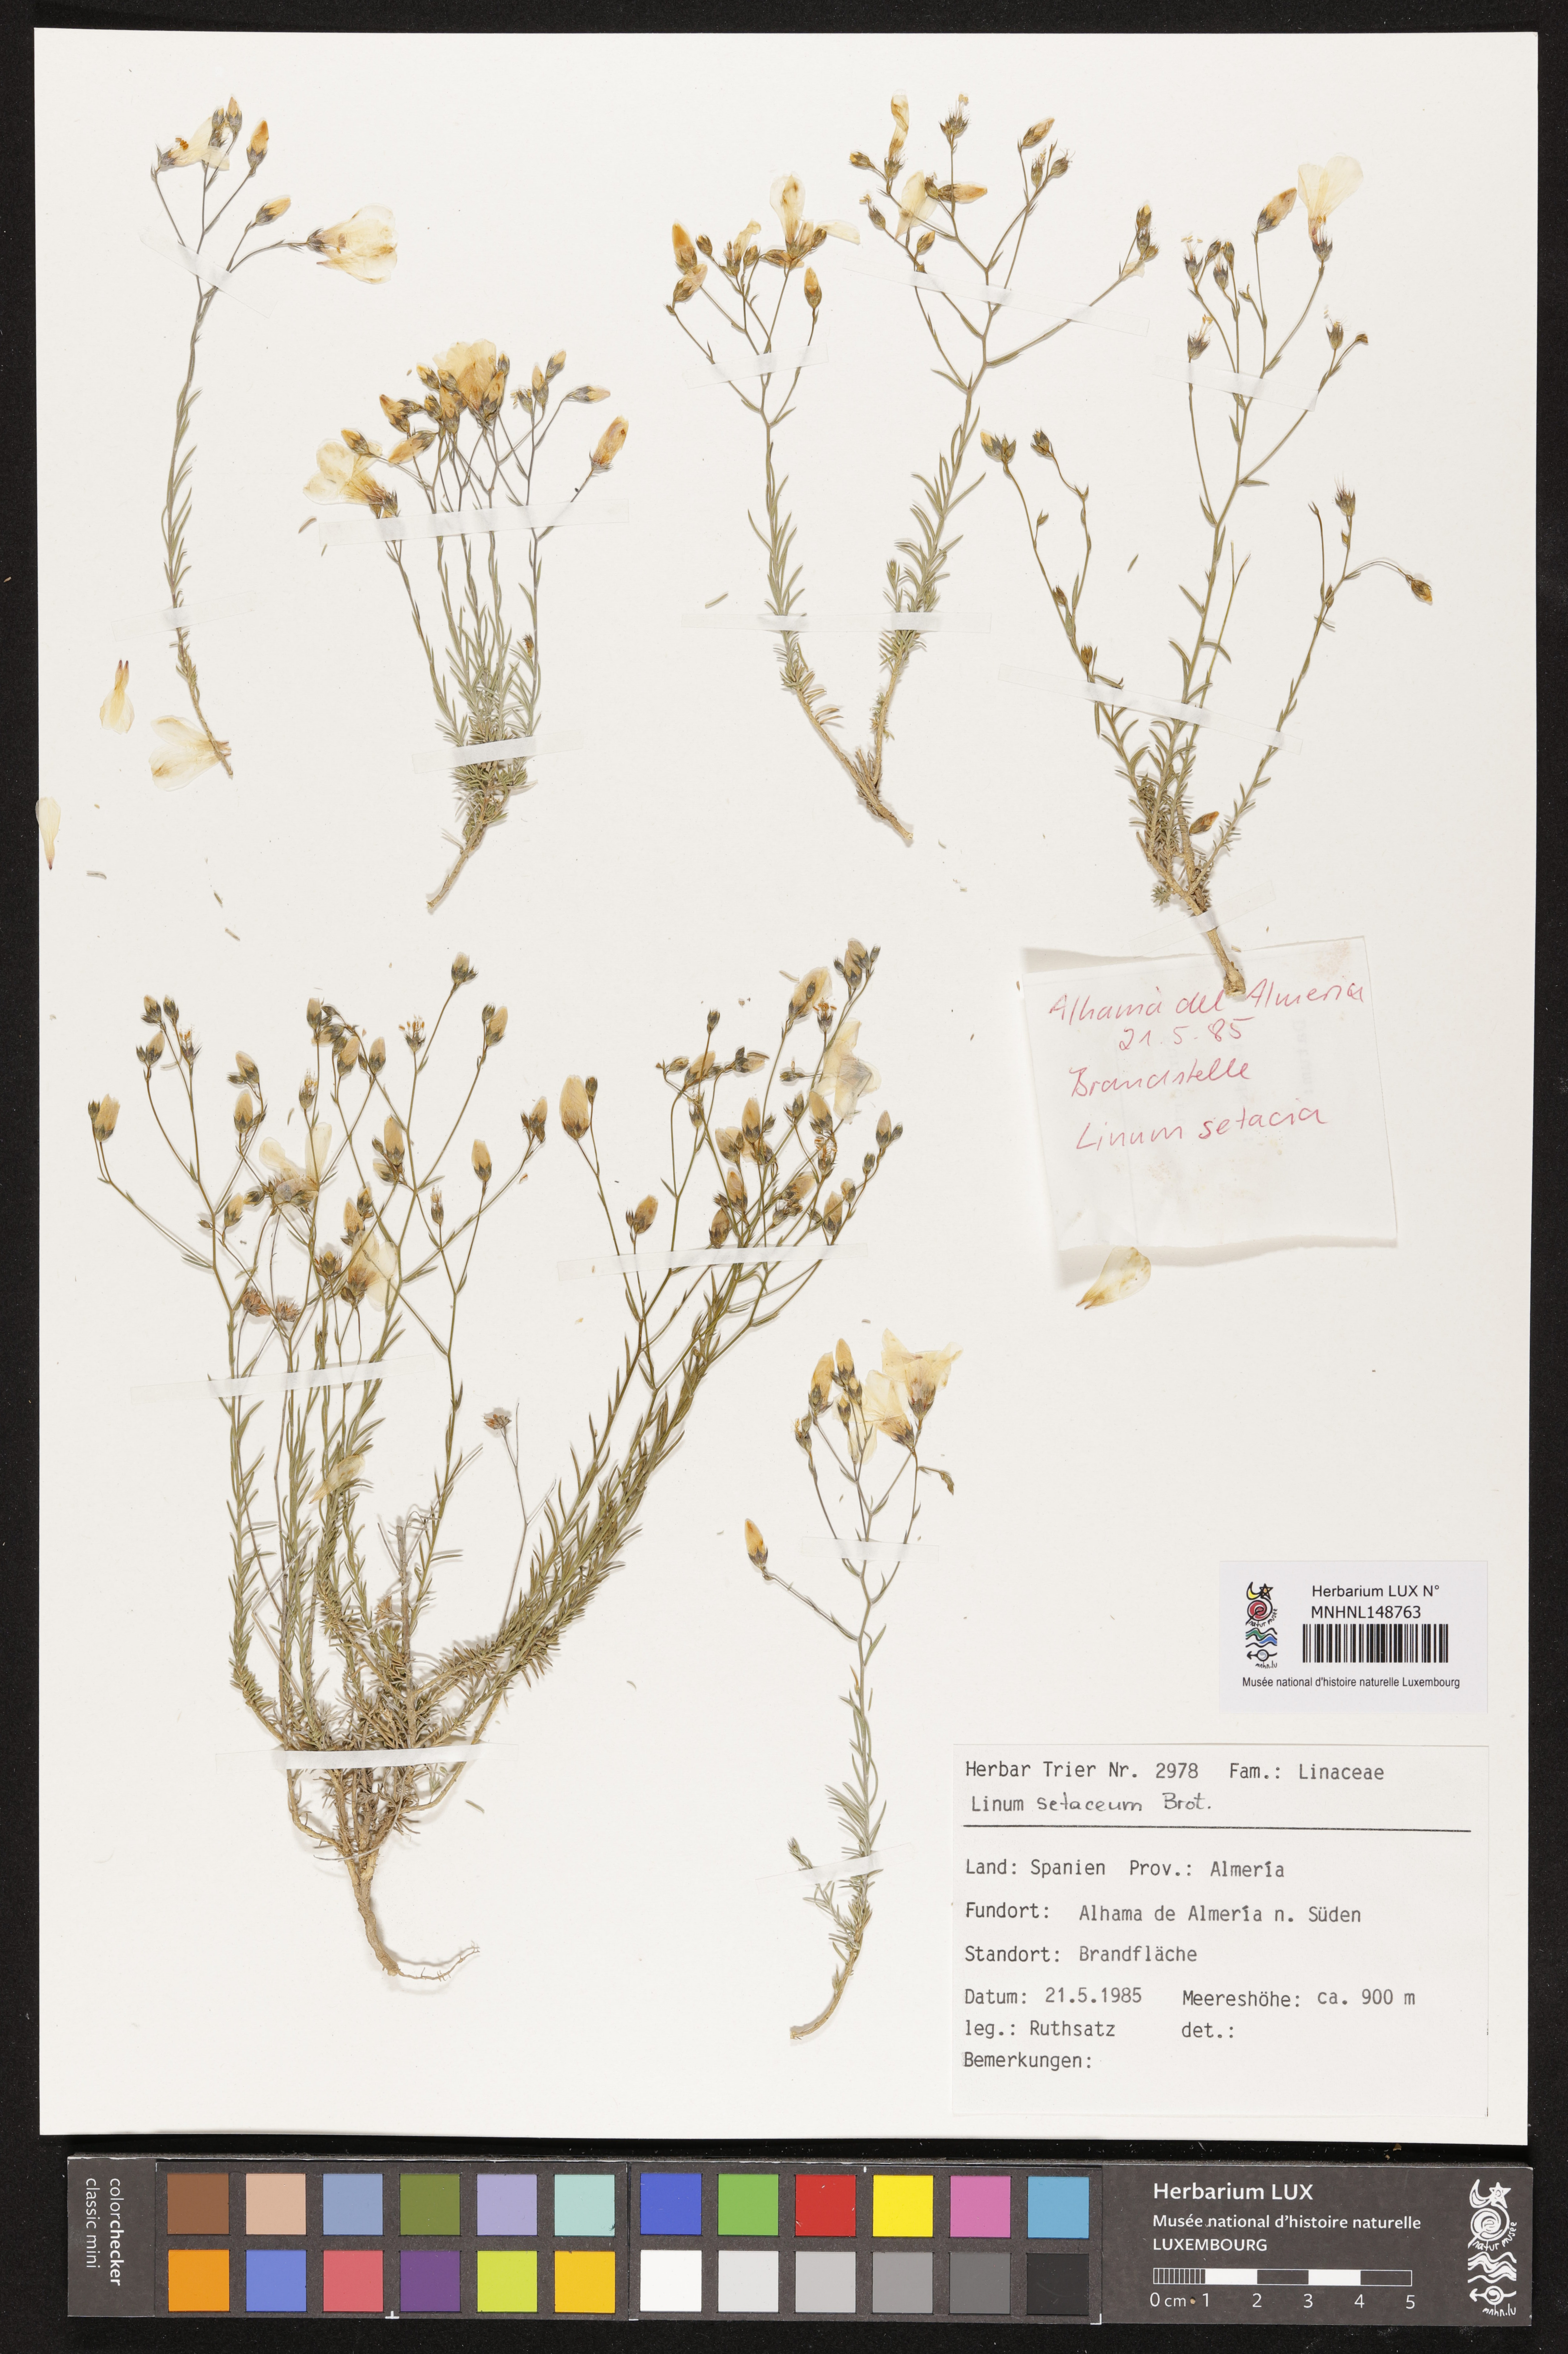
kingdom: Plantae
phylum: Tracheophyta
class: Magnoliopsida
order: Malpighiales
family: Linaceae
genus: Linum
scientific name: Linum setaceum
